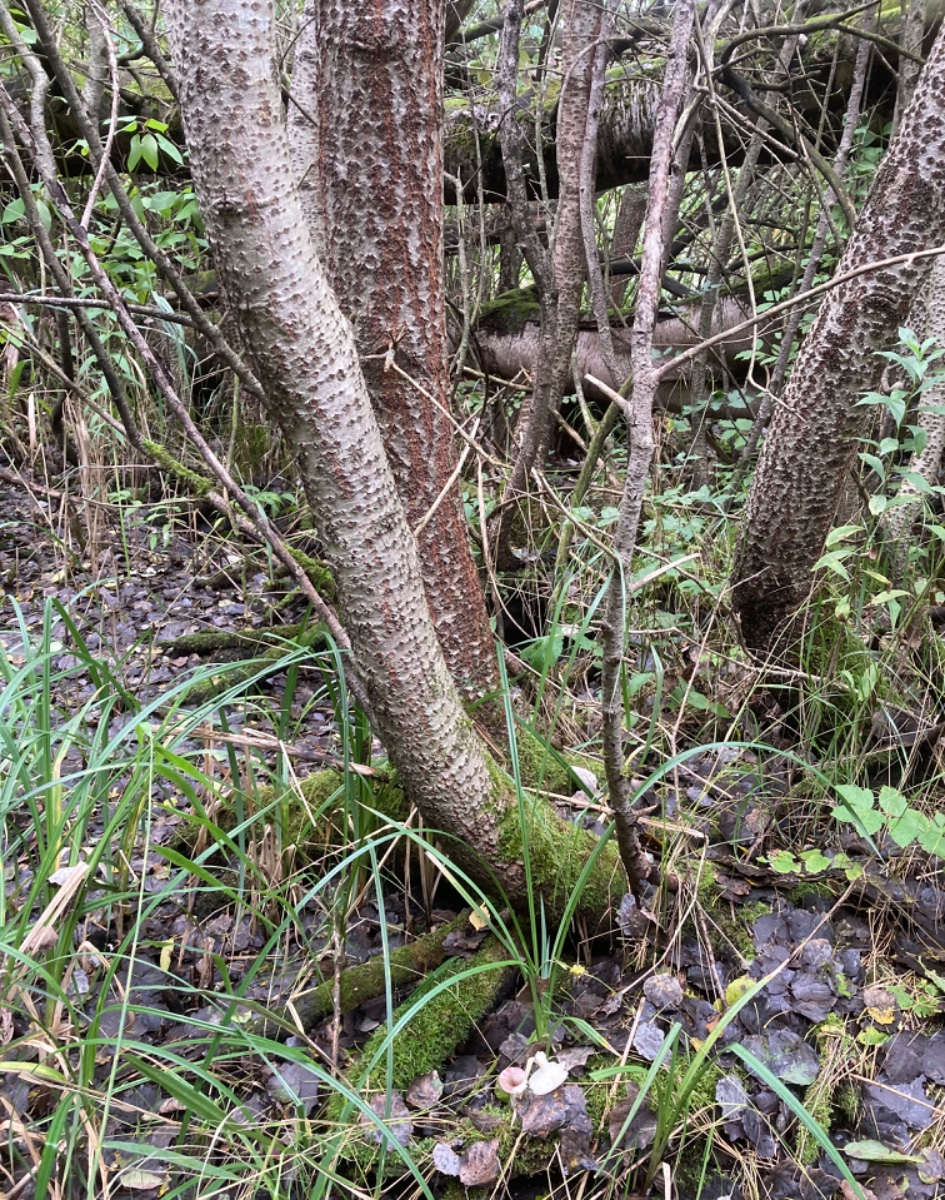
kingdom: Fungi
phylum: Basidiomycota
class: Agaricomycetes
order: Russulales
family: Russulaceae
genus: Russula
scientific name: Russula pelargonia
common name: pelargonie-skørhat
